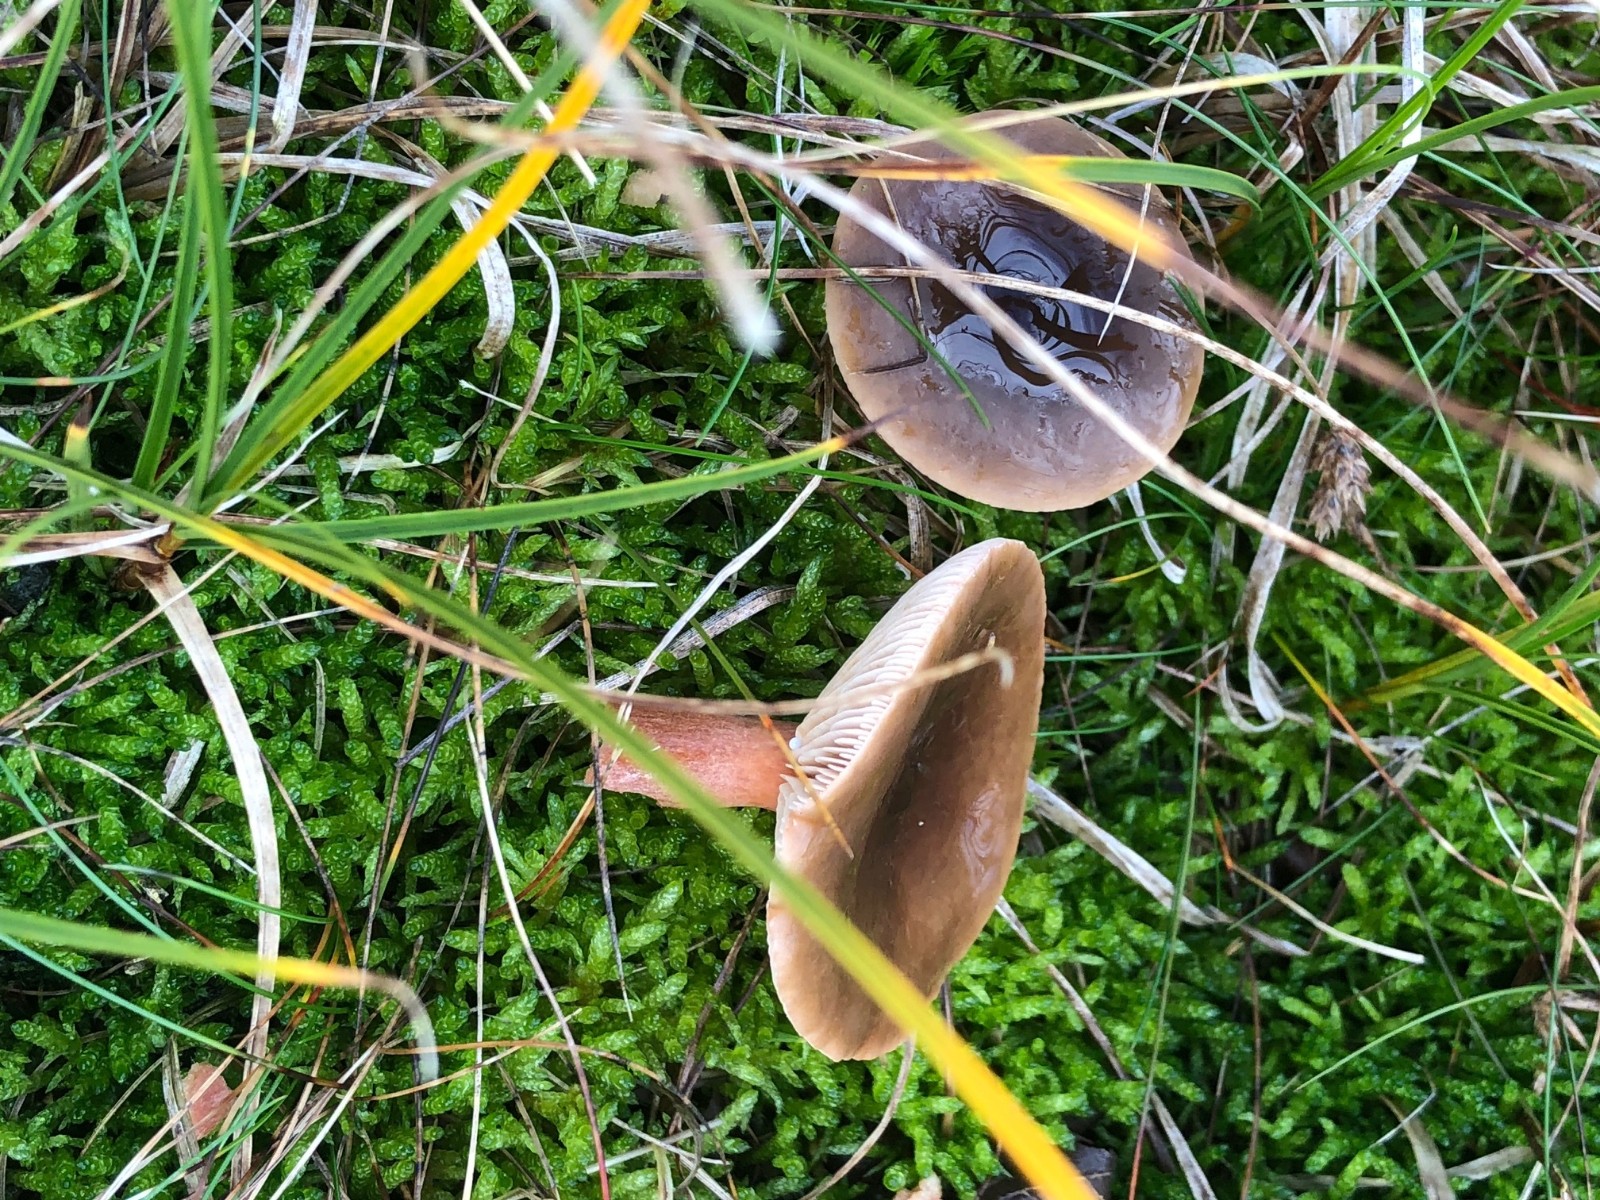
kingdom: Fungi
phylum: Basidiomycota
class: Agaricomycetes
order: Russulales
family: Russulaceae
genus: Lactarius
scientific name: Lactarius hepaticus
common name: leverbrun mælkehat
